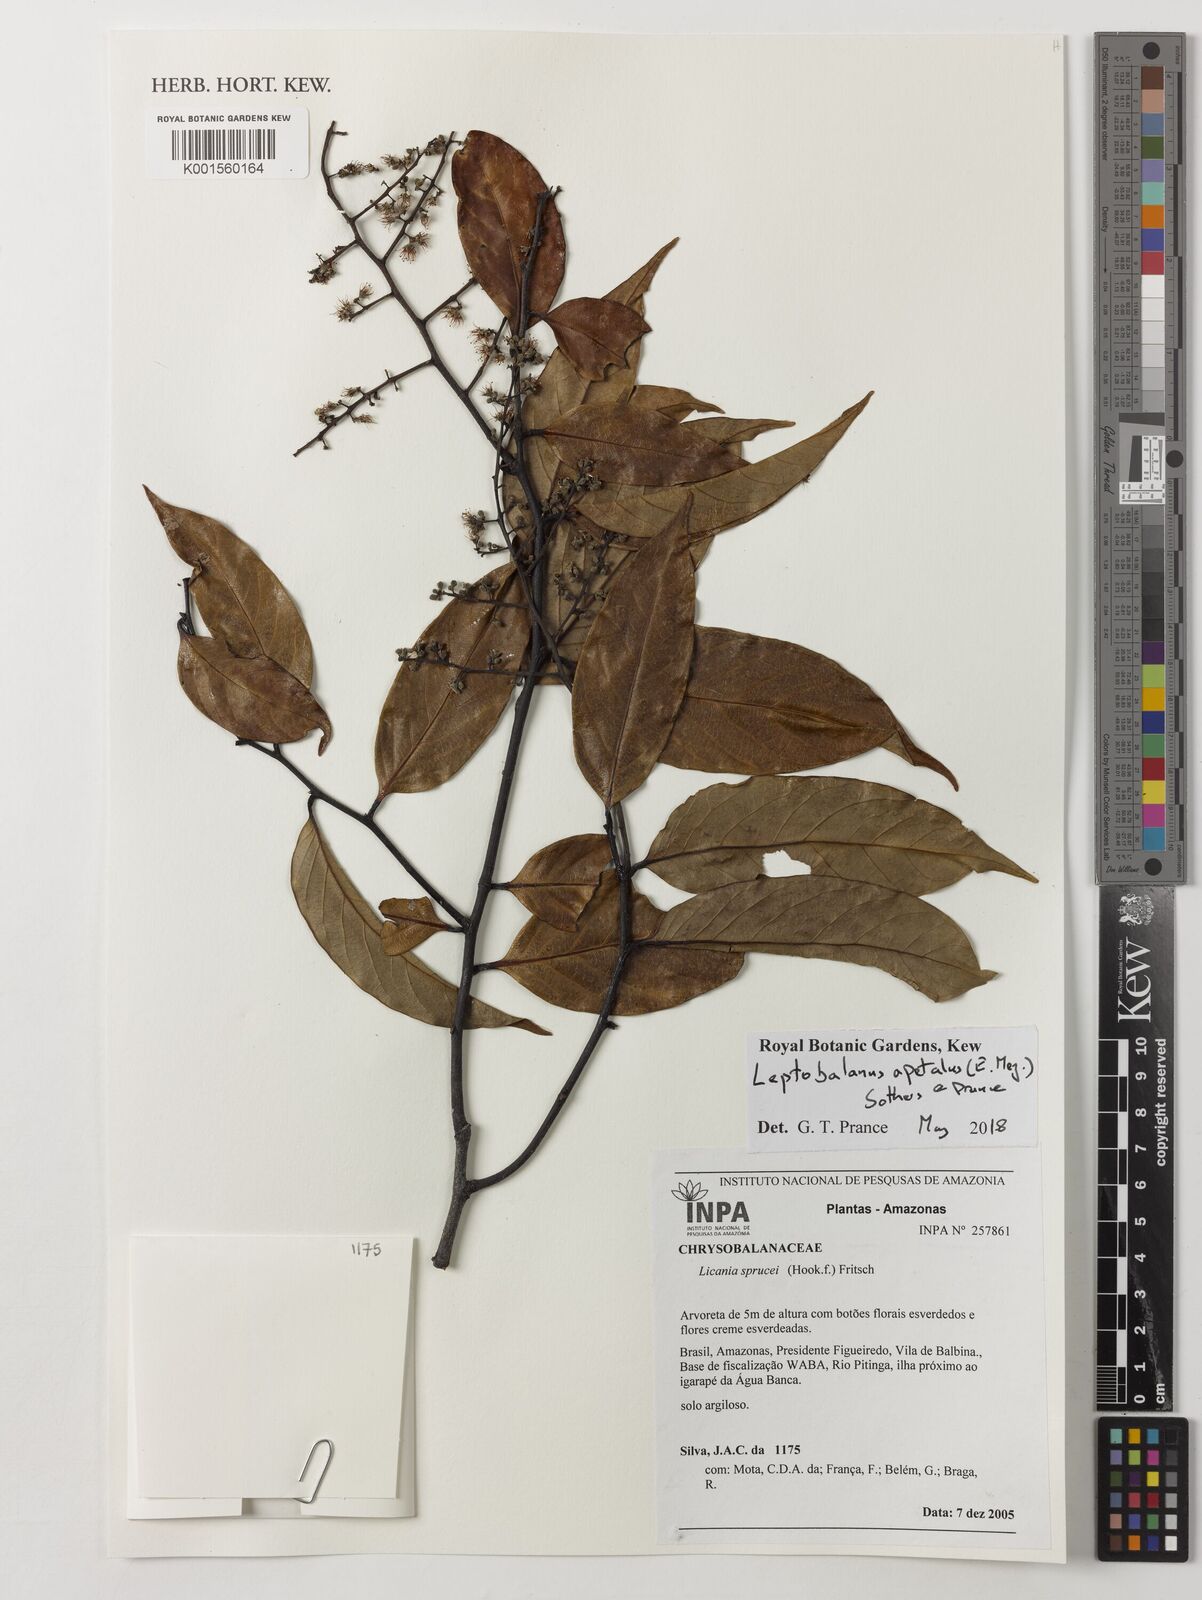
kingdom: Plantae
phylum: Tracheophyta
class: Magnoliopsida
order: Malpighiales
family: Chrysobalanaceae
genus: Leptobalanus
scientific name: Leptobalanus apetalus
